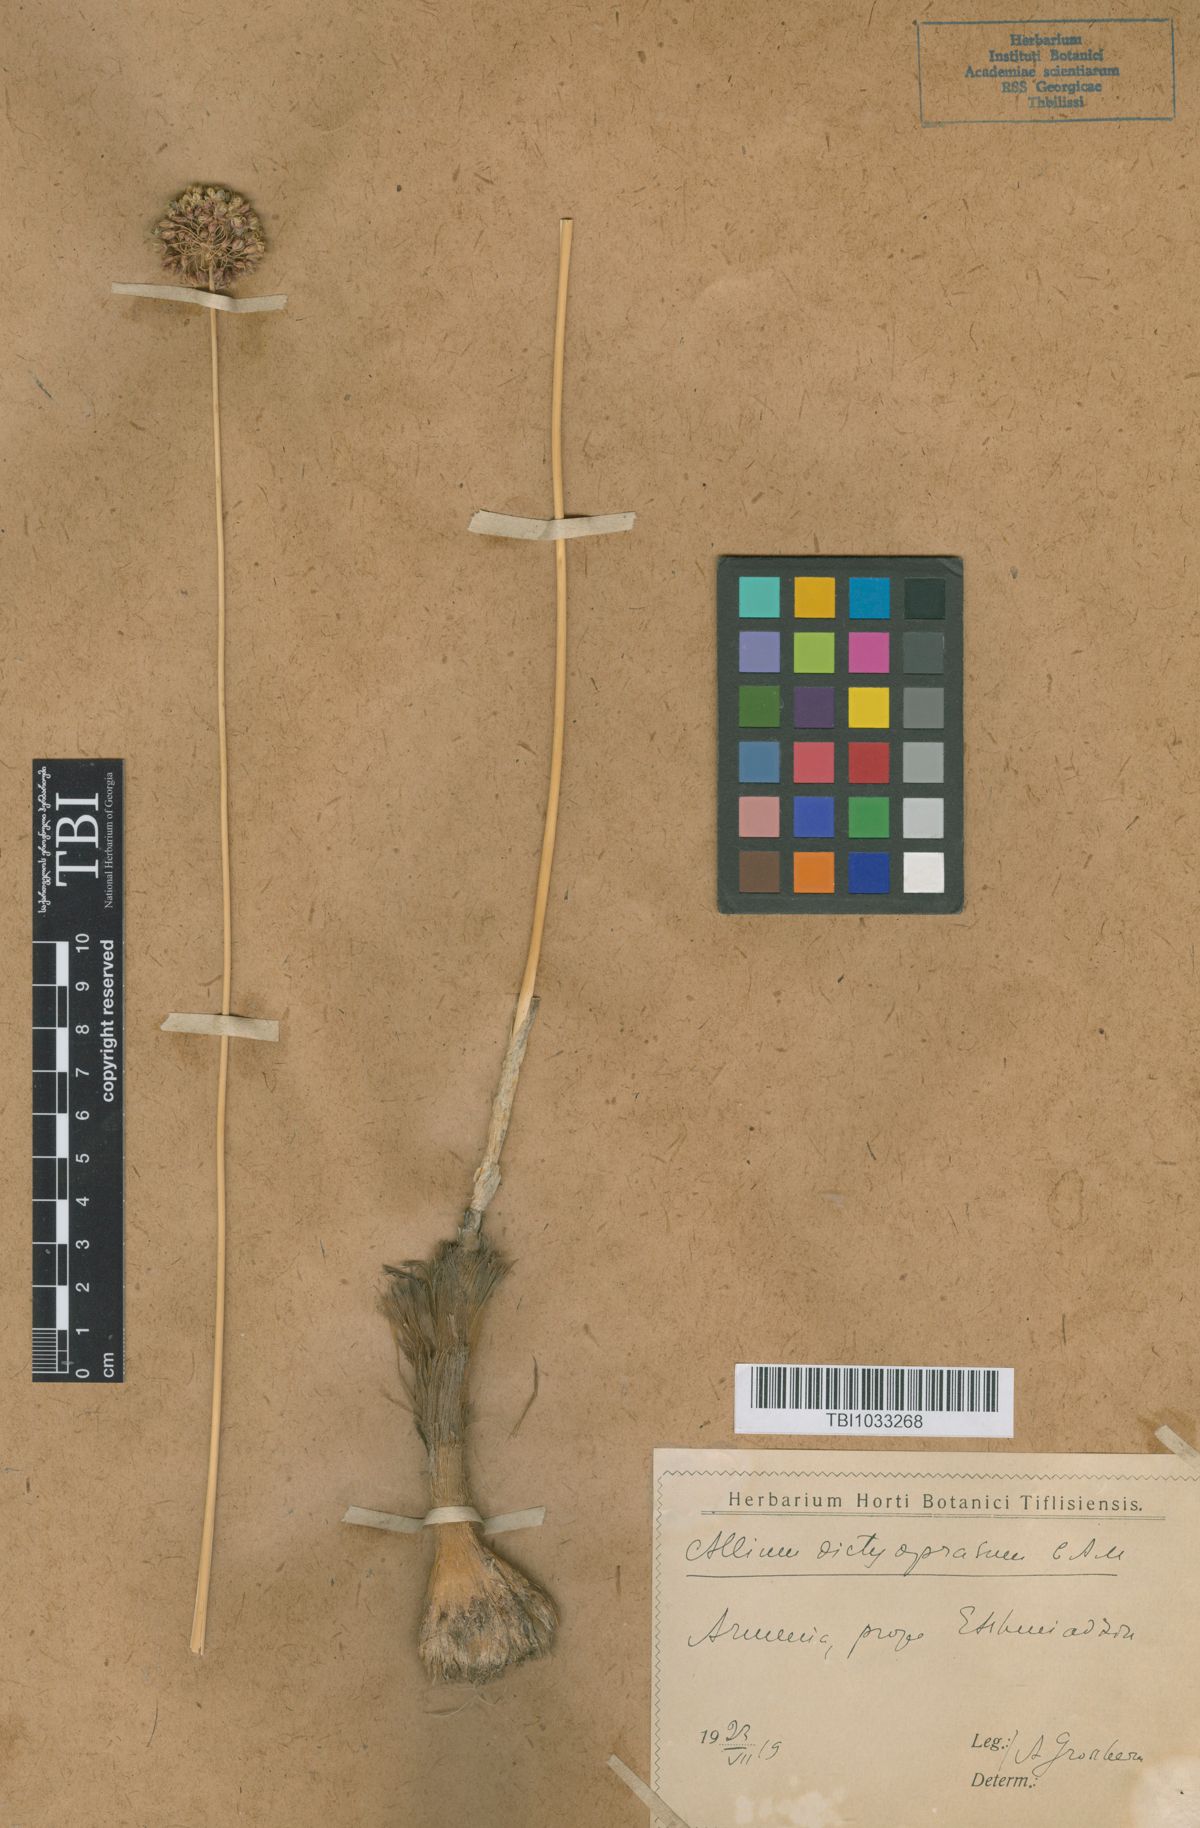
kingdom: Plantae
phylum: Tracheophyta
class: Liliopsida
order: Asparagales
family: Amaryllidaceae
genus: Allium
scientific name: Allium dictyoprasum
